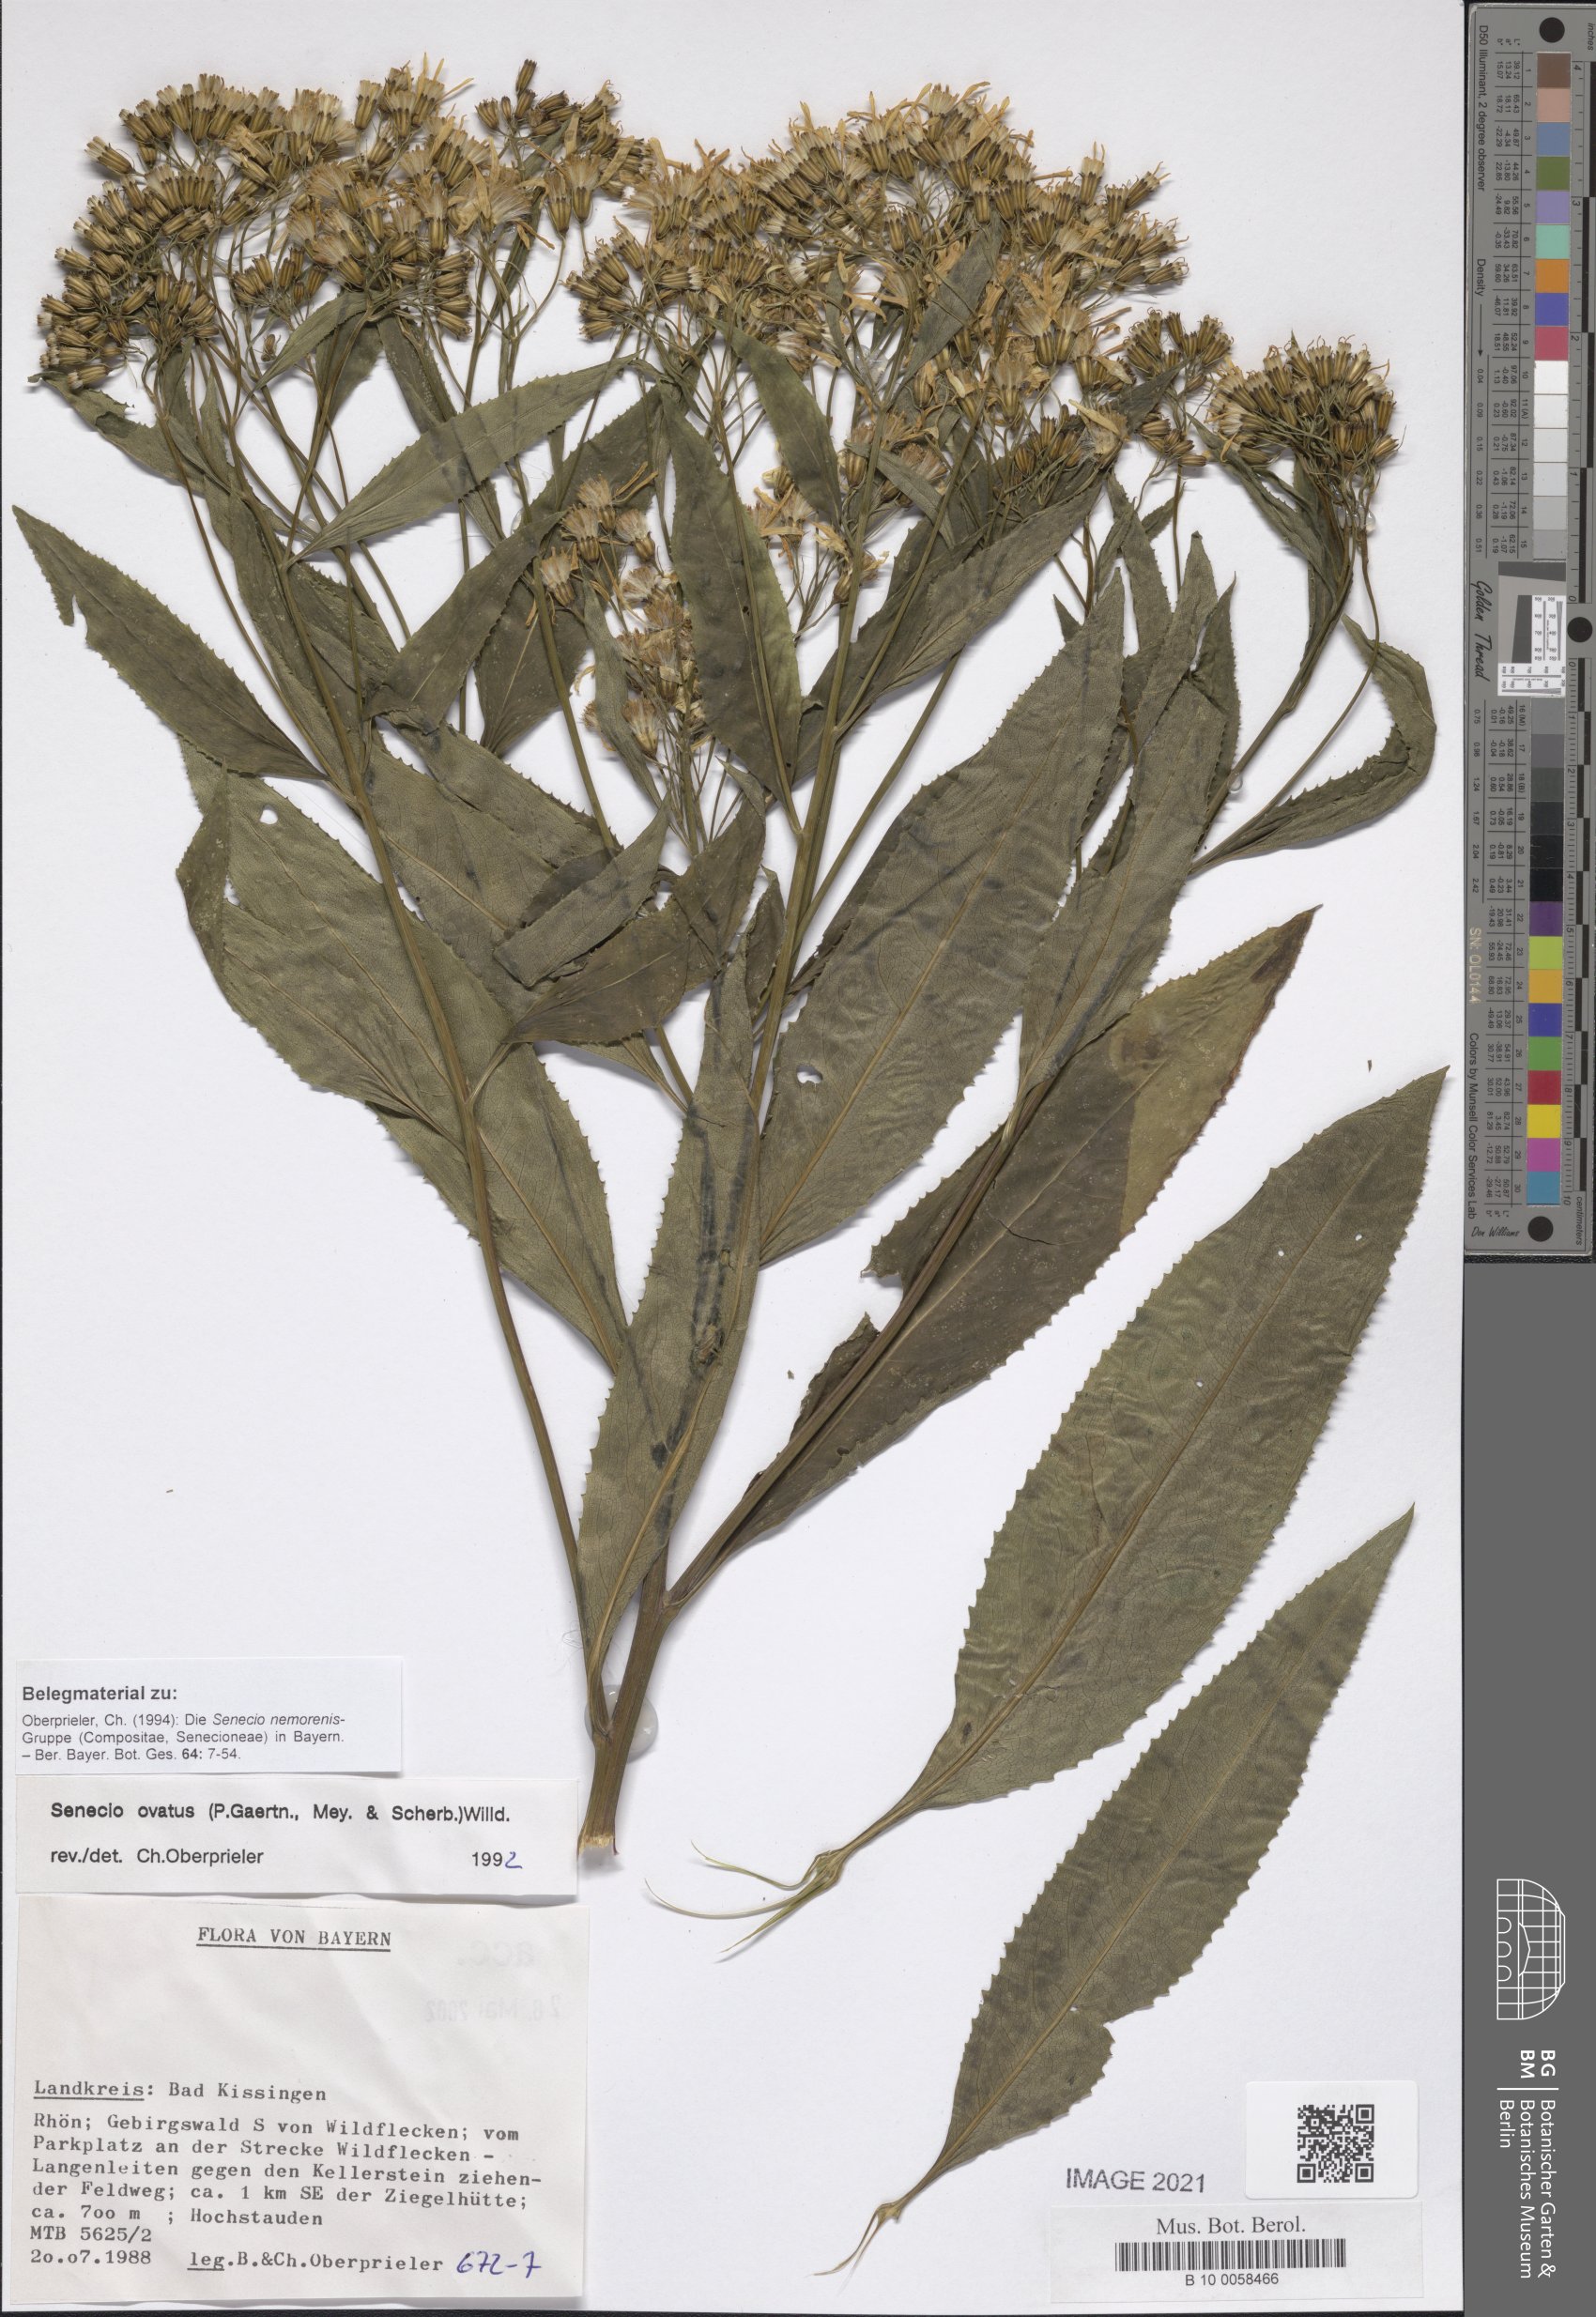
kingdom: Plantae
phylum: Tracheophyta
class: Magnoliopsida
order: Asterales
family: Asteraceae
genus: Senecio
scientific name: Senecio ovatus
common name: Wood ragwort
